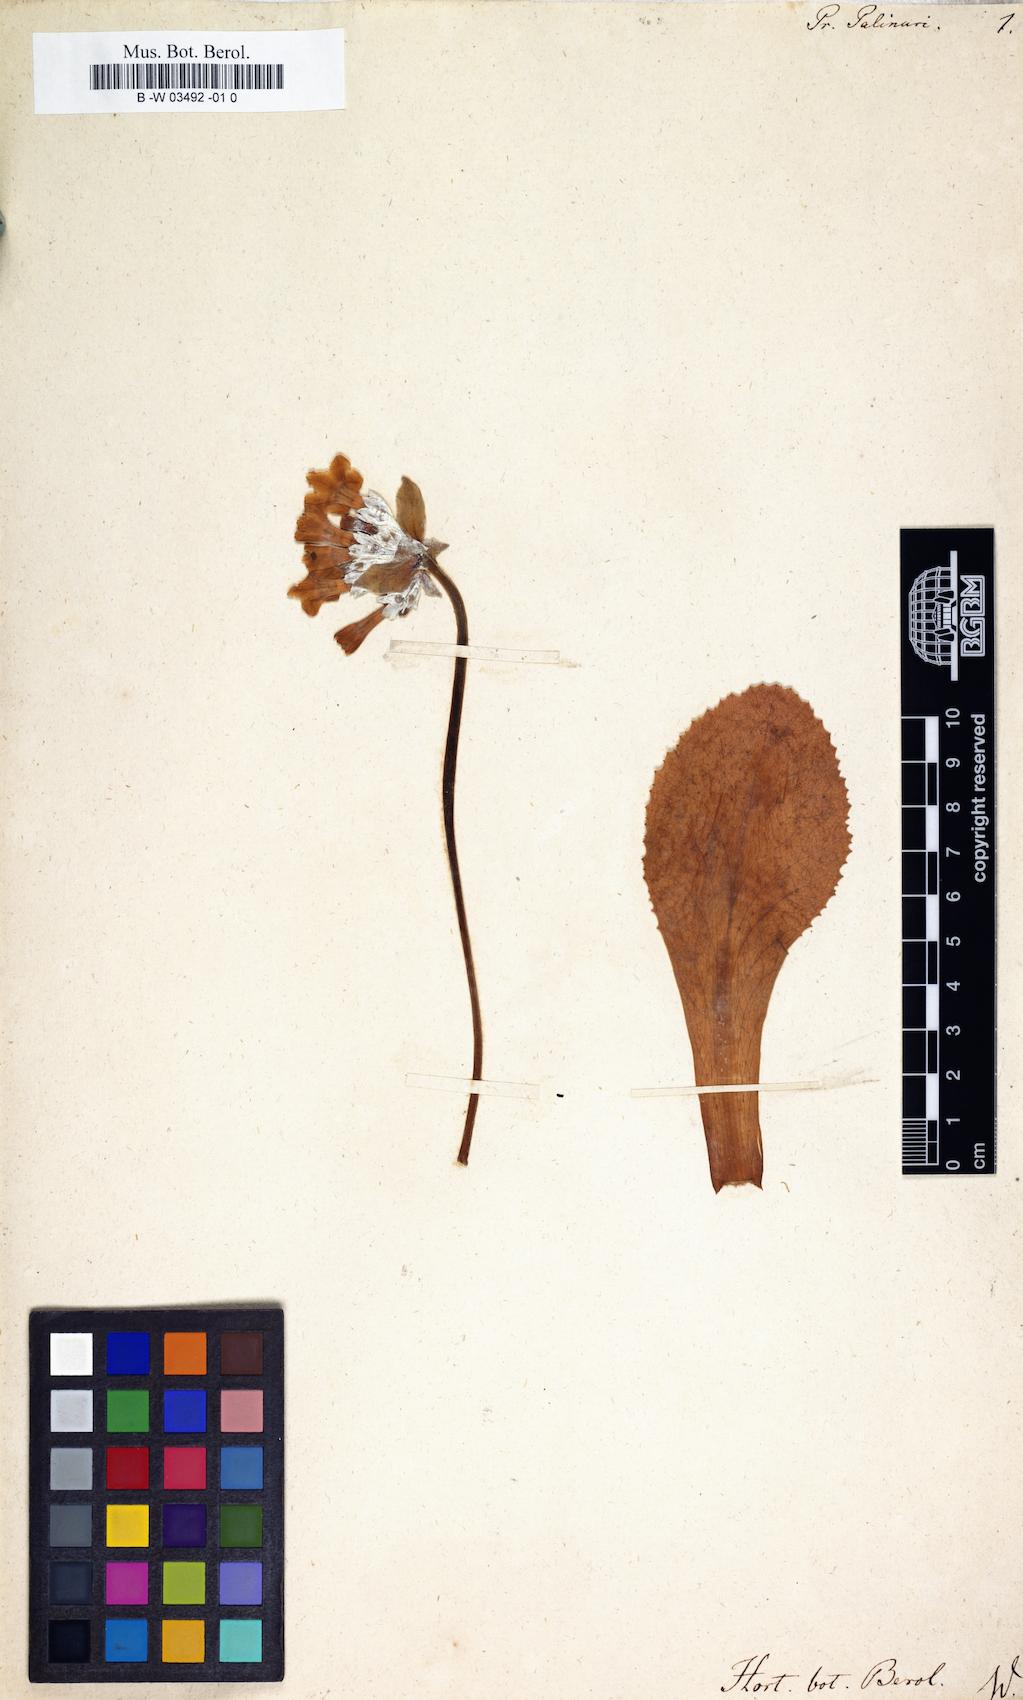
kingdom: Plantae
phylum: Tracheophyta
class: Magnoliopsida
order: Ericales
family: Primulaceae
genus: Primula
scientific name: Primula palinuri
